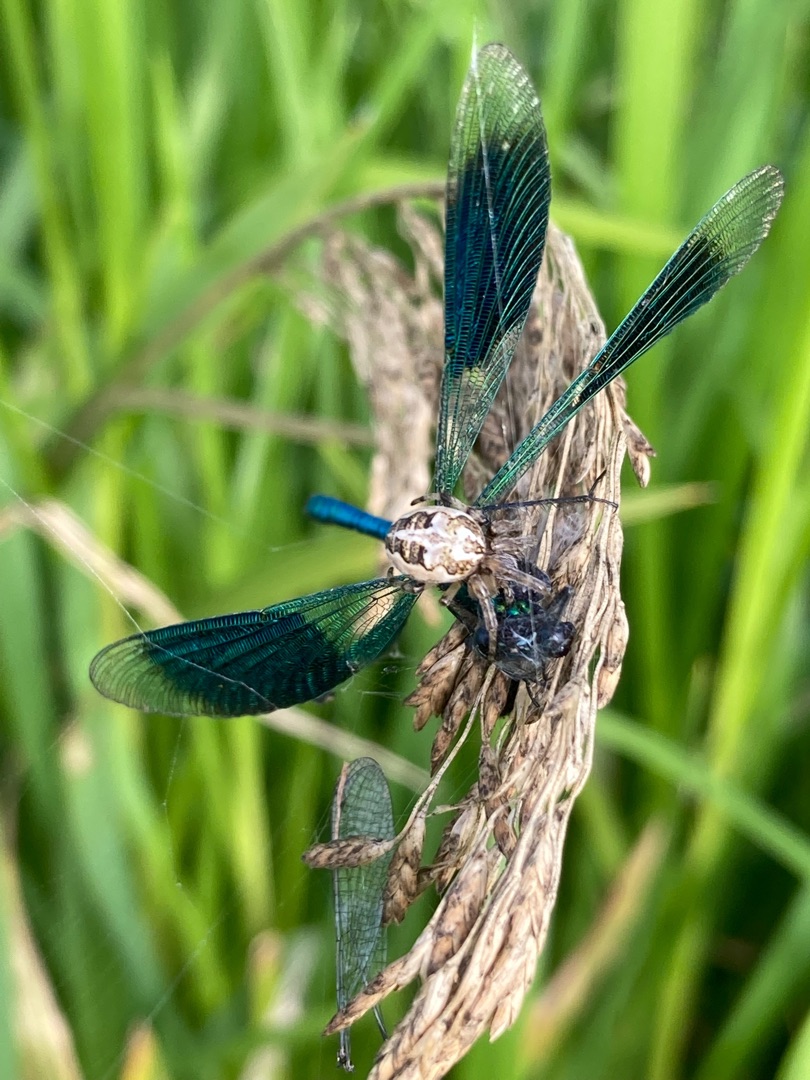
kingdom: Animalia
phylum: Arthropoda
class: Arachnida
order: Araneae
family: Araneidae
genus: Larinioides
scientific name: Larinioides cornutus
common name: Sivhjulspinder
